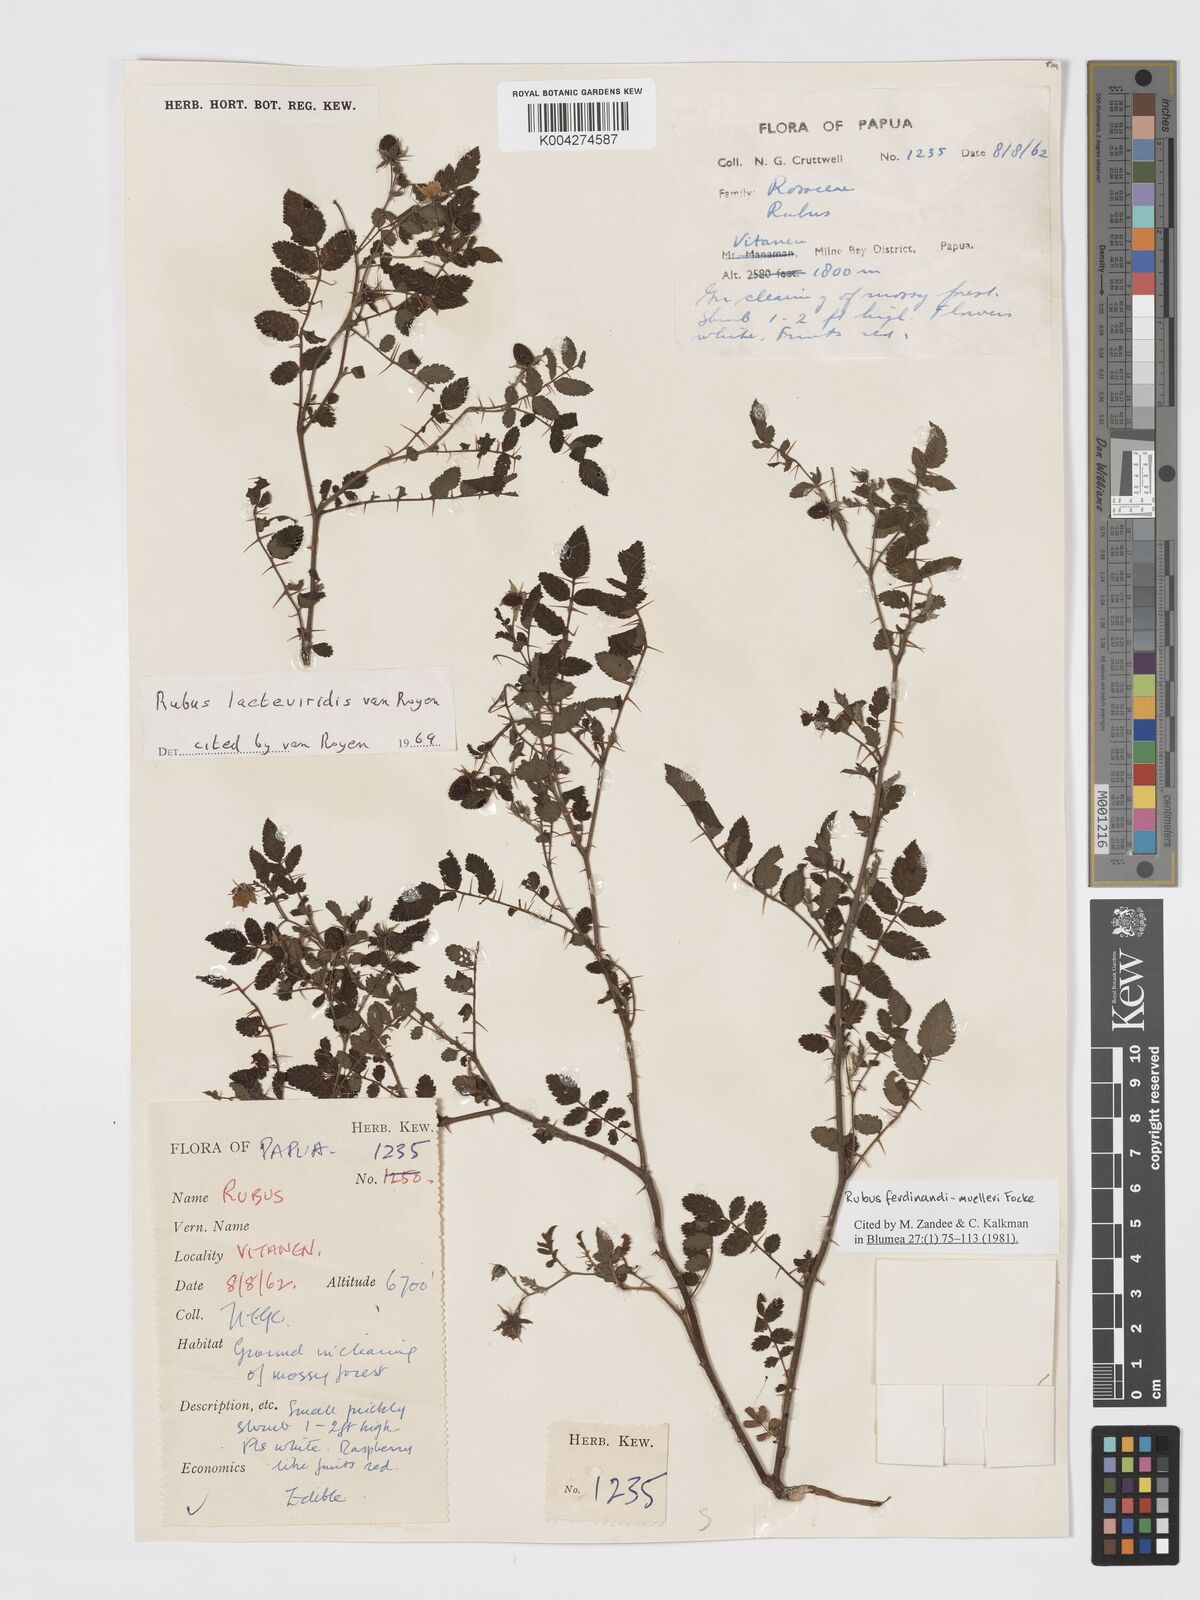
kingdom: Plantae
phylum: Tracheophyta
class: Magnoliopsida
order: Rosales
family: Rosaceae
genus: Rubus
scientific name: Rubus ferdinandimuelleri
